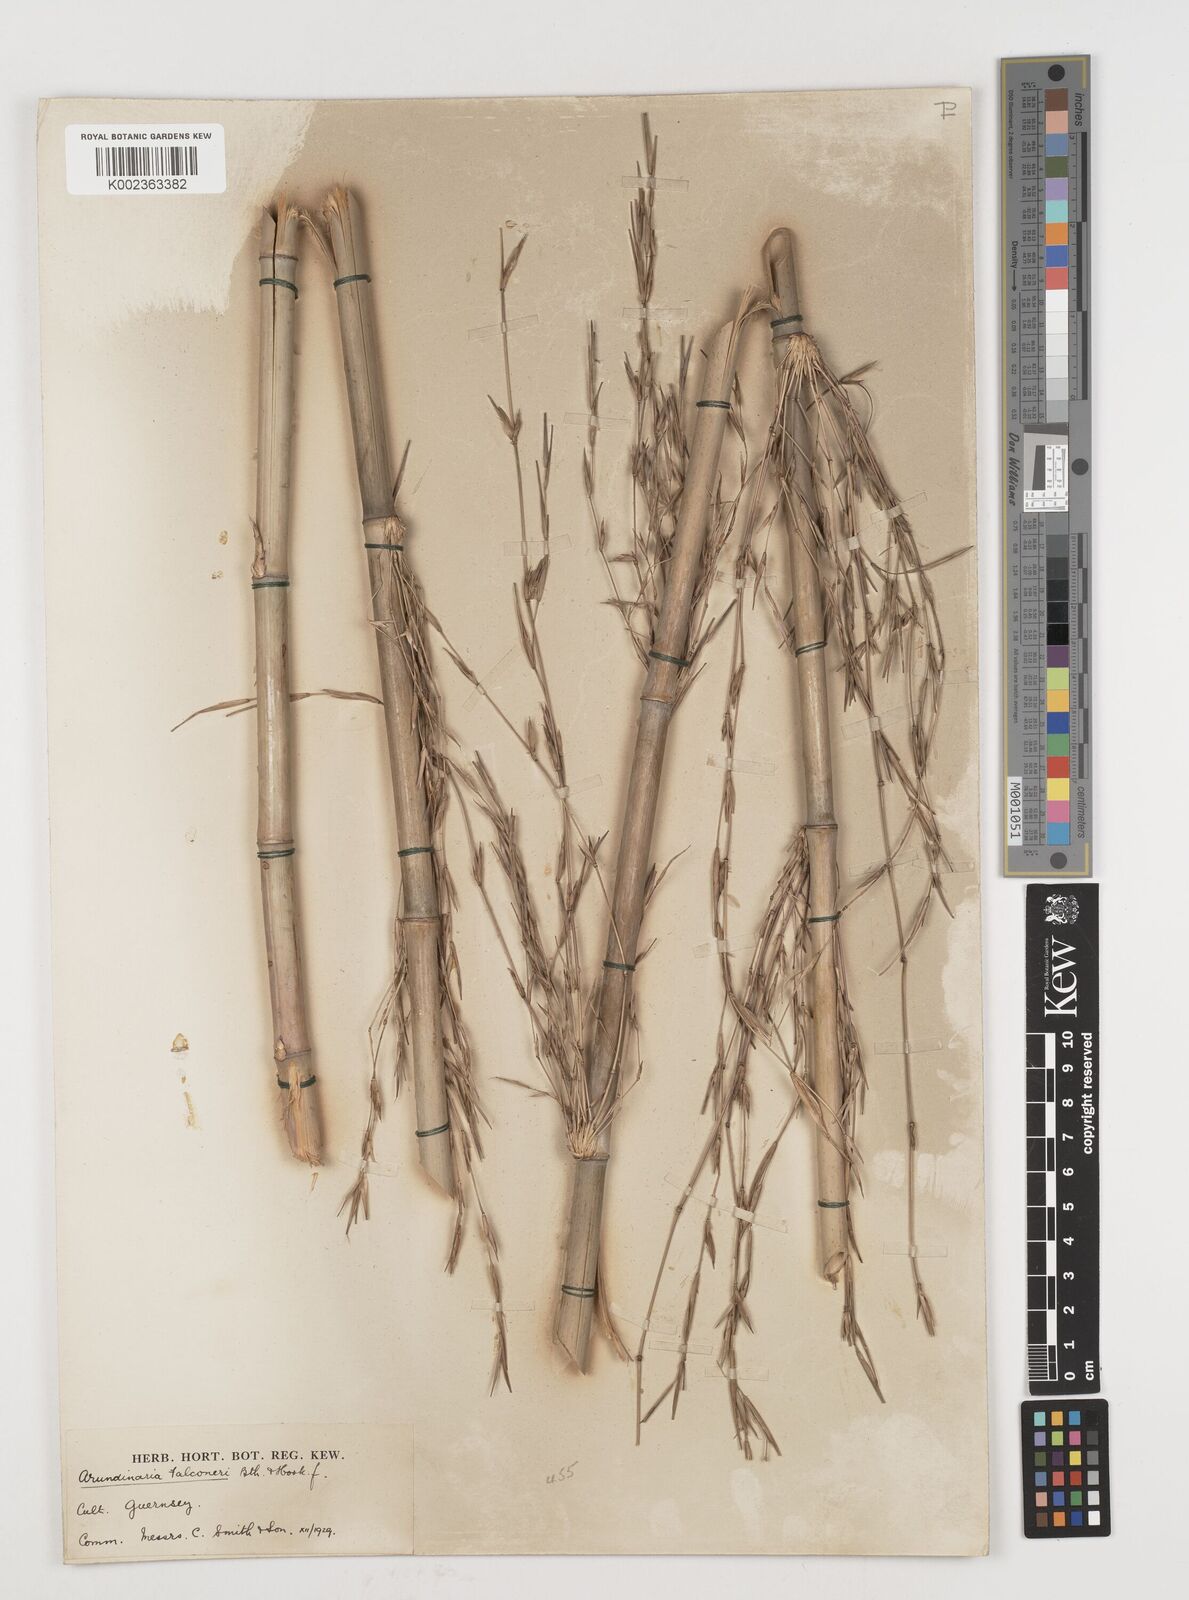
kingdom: Plantae
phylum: Tracheophyta
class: Liliopsida
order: Poales
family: Poaceae
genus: Himalayacalamus
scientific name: Himalayacalamus falconeri
